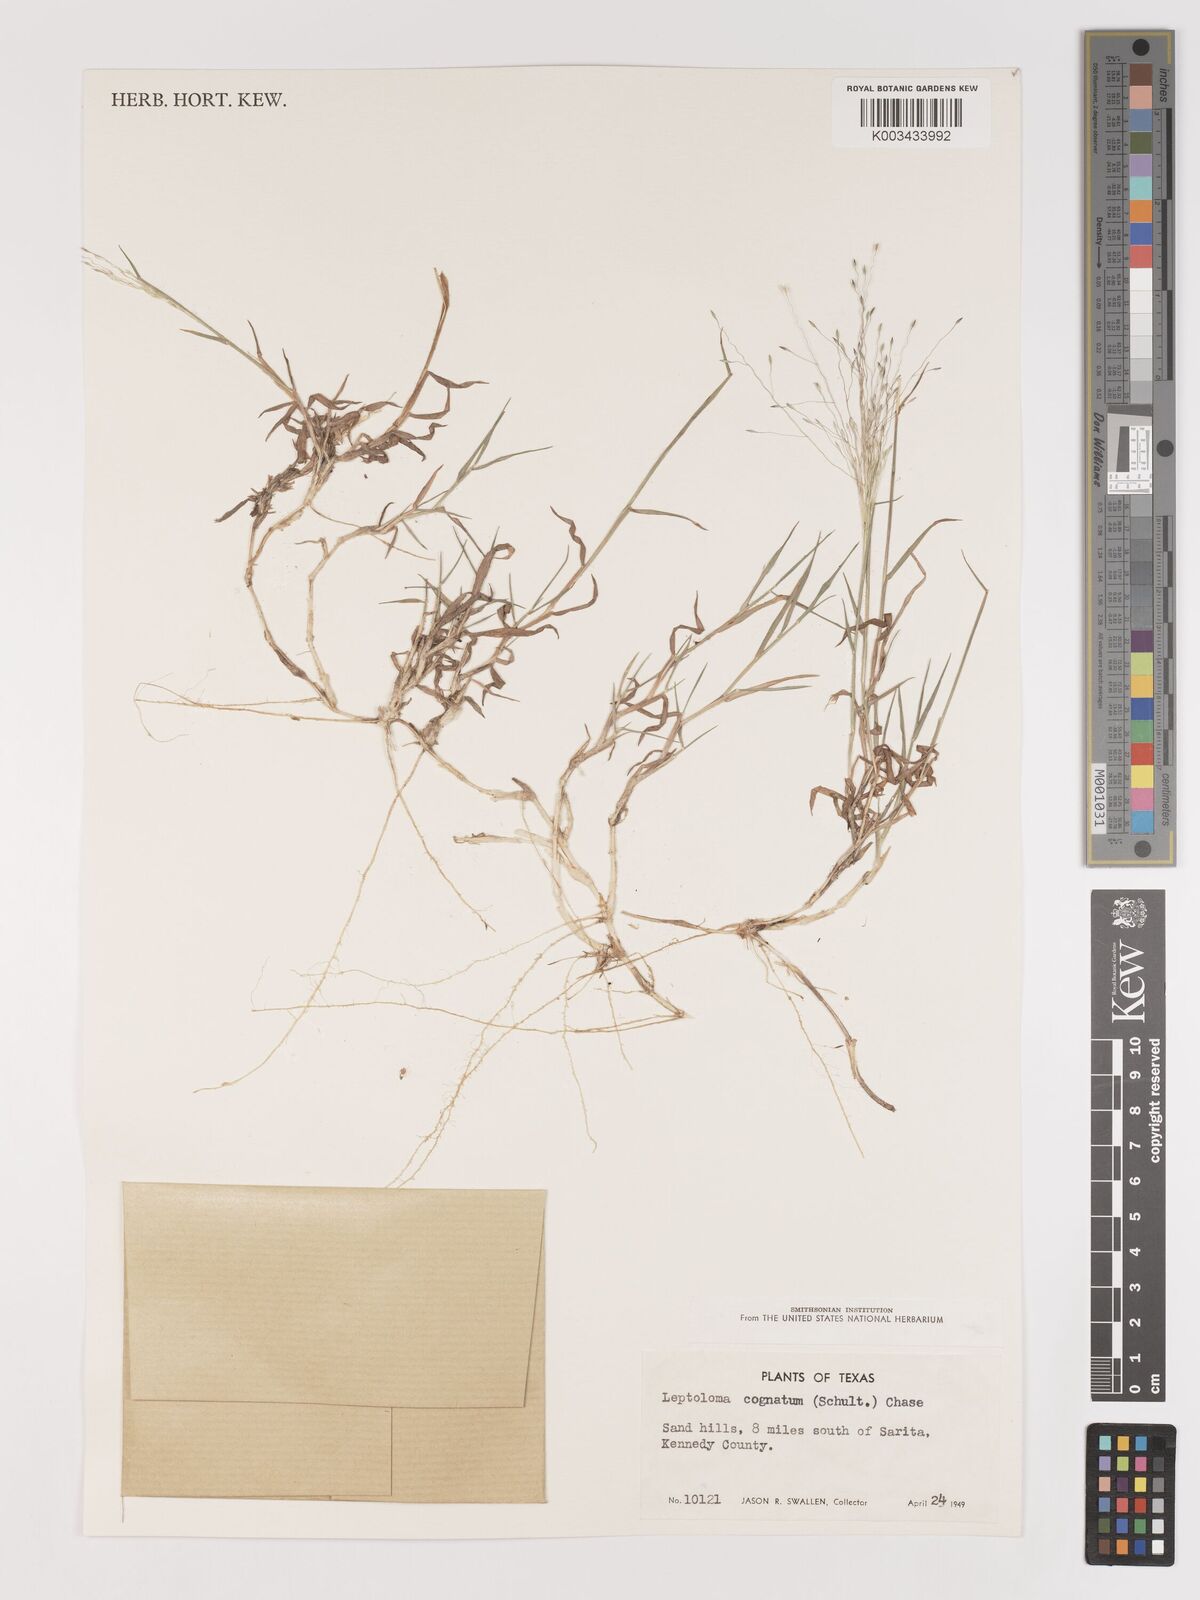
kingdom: Plantae
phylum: Tracheophyta
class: Liliopsida
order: Poales
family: Poaceae
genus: Digitaria
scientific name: Digitaria
